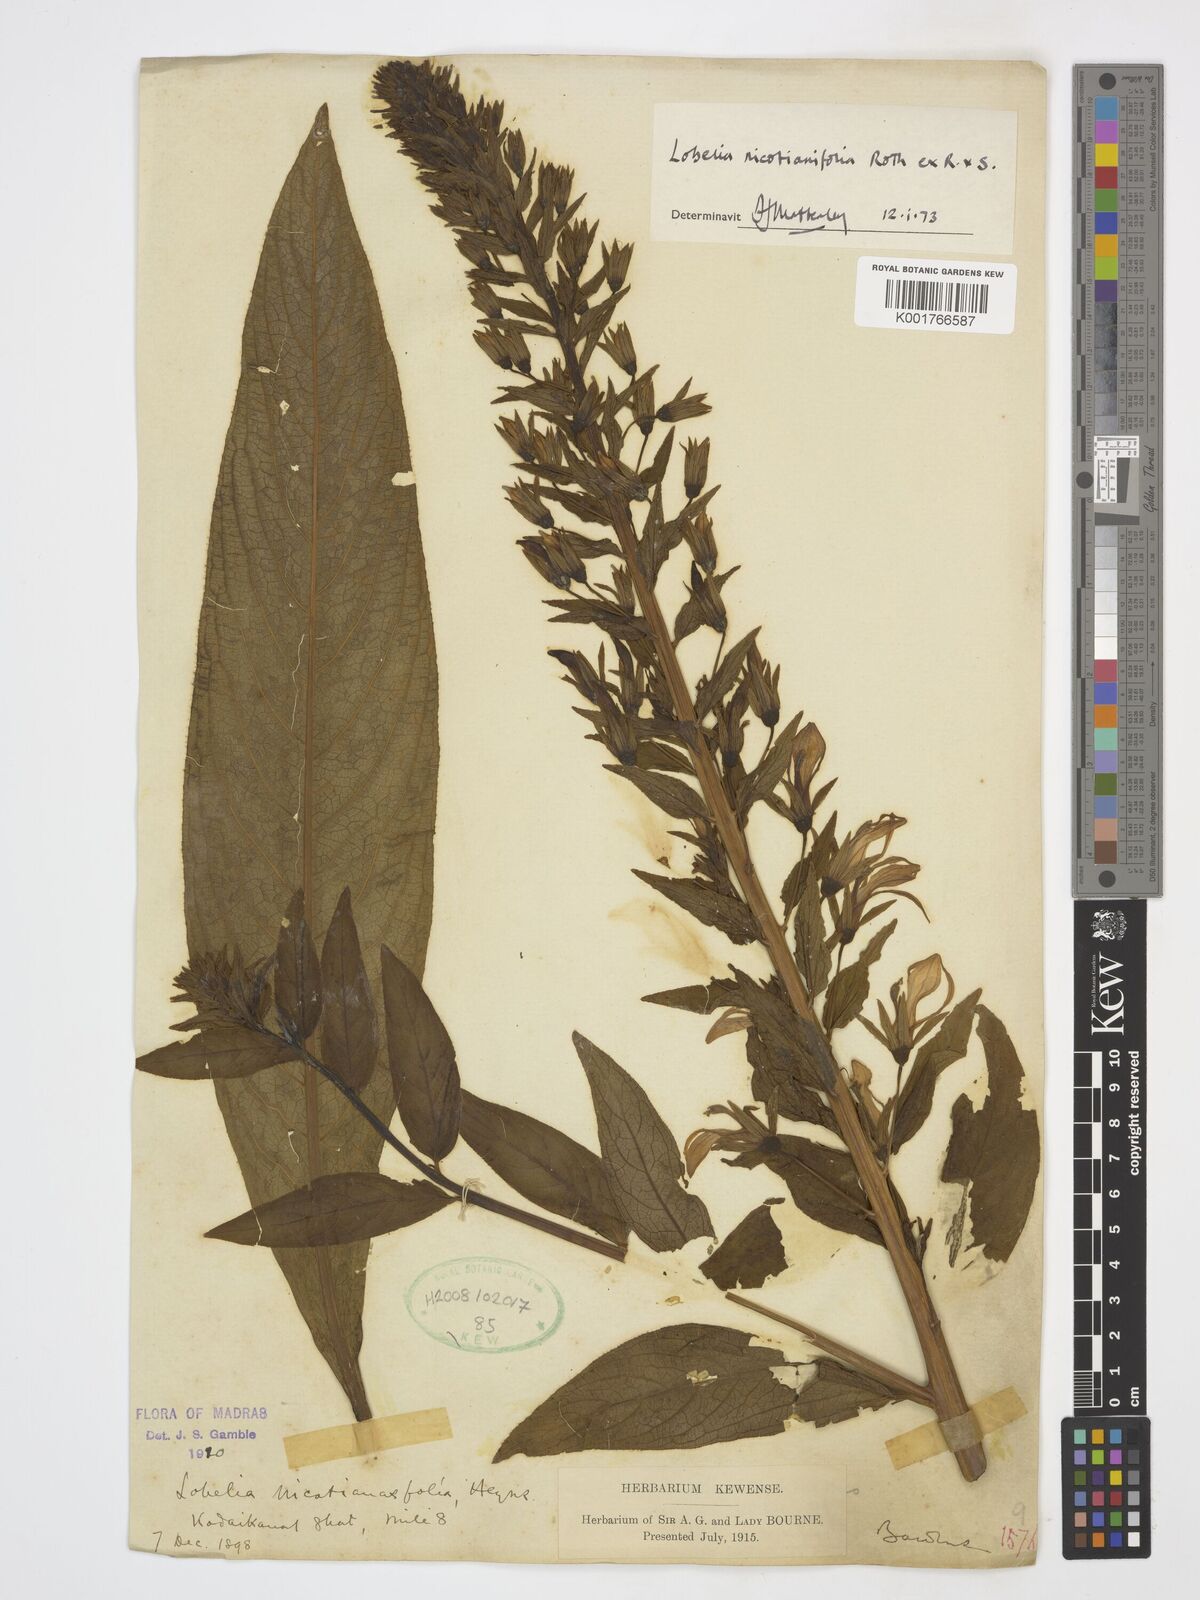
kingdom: Plantae
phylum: Tracheophyta
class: Magnoliopsida
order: Asterales
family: Campanulaceae
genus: Lobelia
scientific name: Lobelia nicotianifolia
